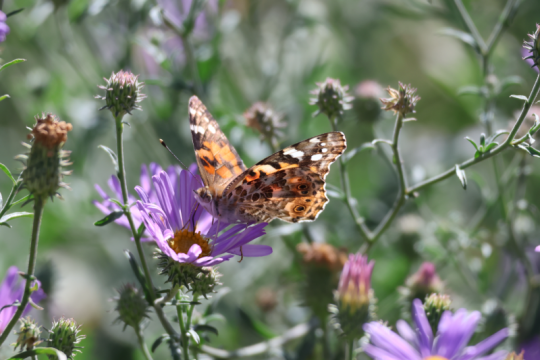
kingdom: Animalia
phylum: Arthropoda
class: Insecta
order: Lepidoptera
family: Nymphalidae
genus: Vanessa
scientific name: Vanessa cardui
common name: Painted Lady
